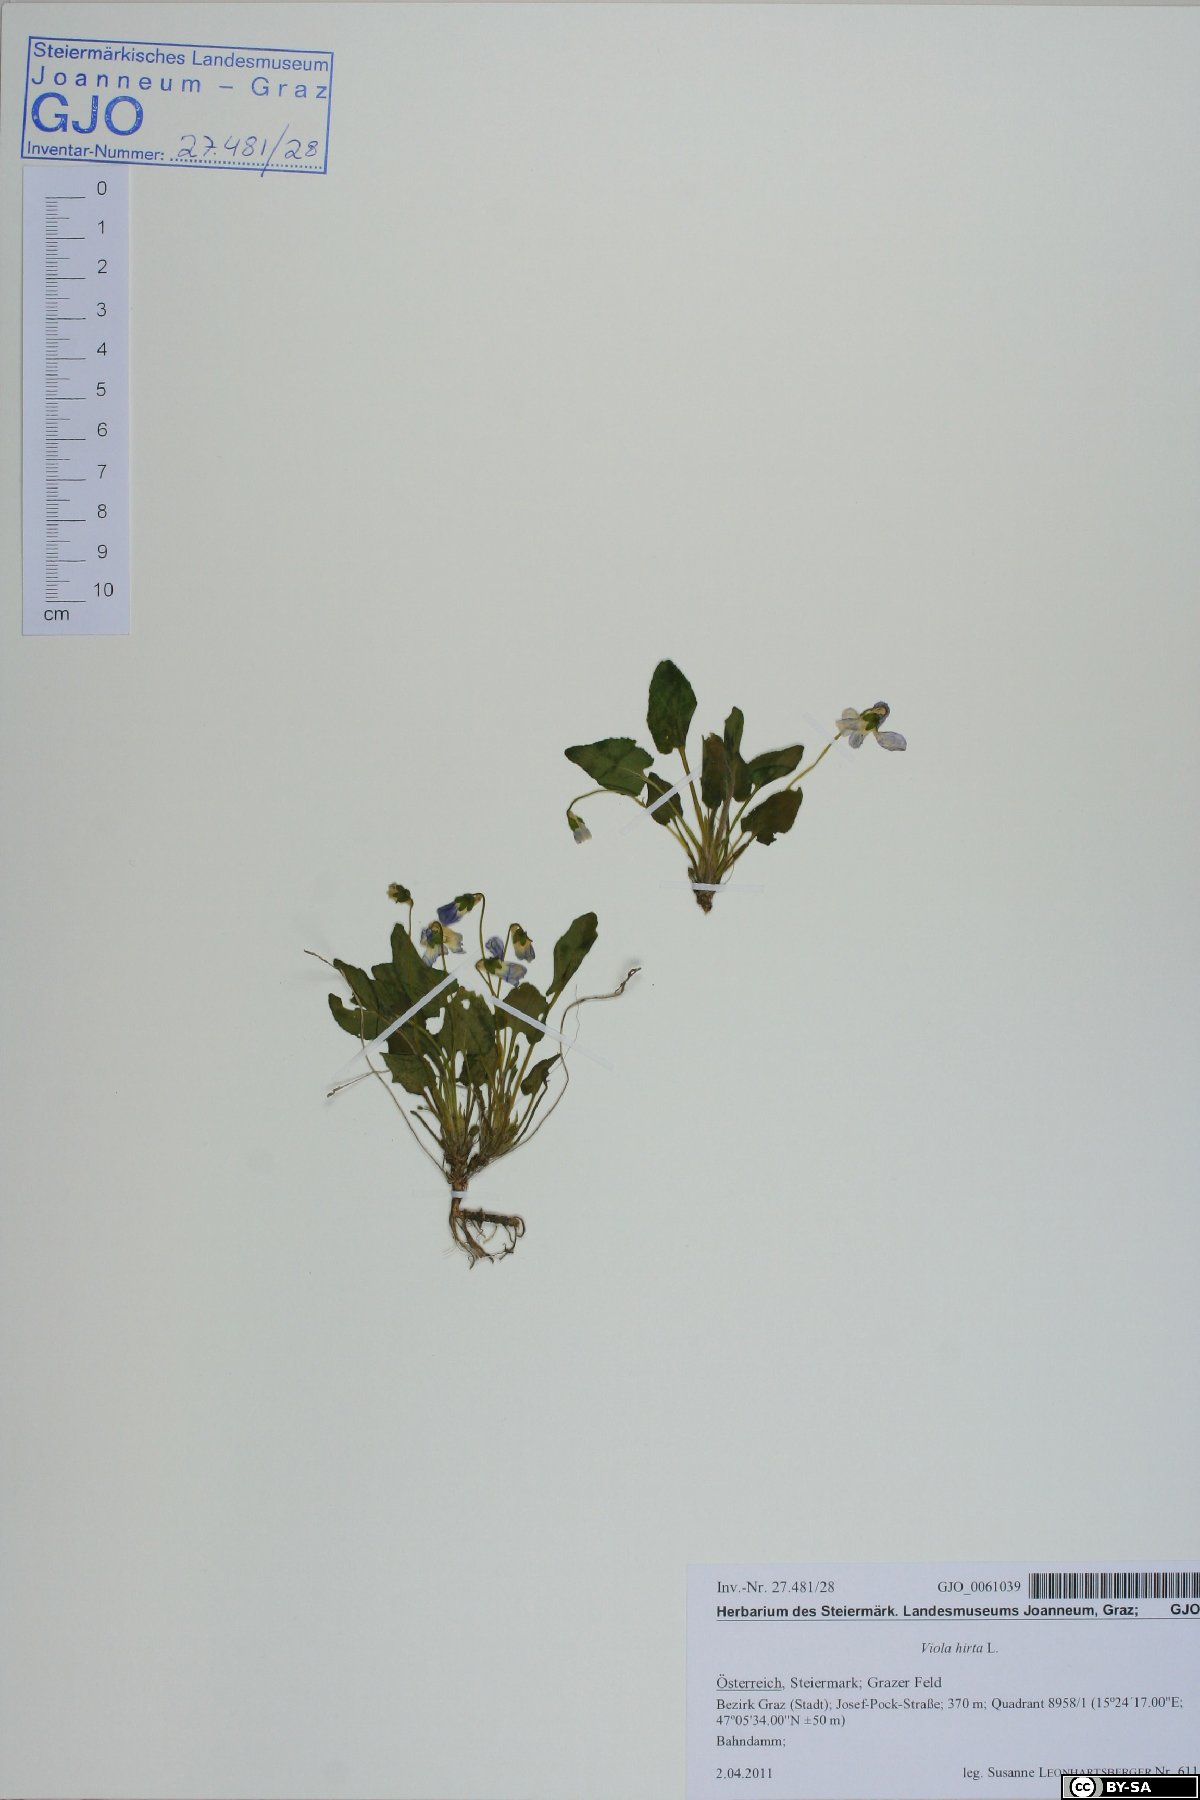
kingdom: Plantae
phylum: Tracheophyta
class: Magnoliopsida
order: Malpighiales
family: Violaceae
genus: Viola
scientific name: Viola hirta
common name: Hairy violet
